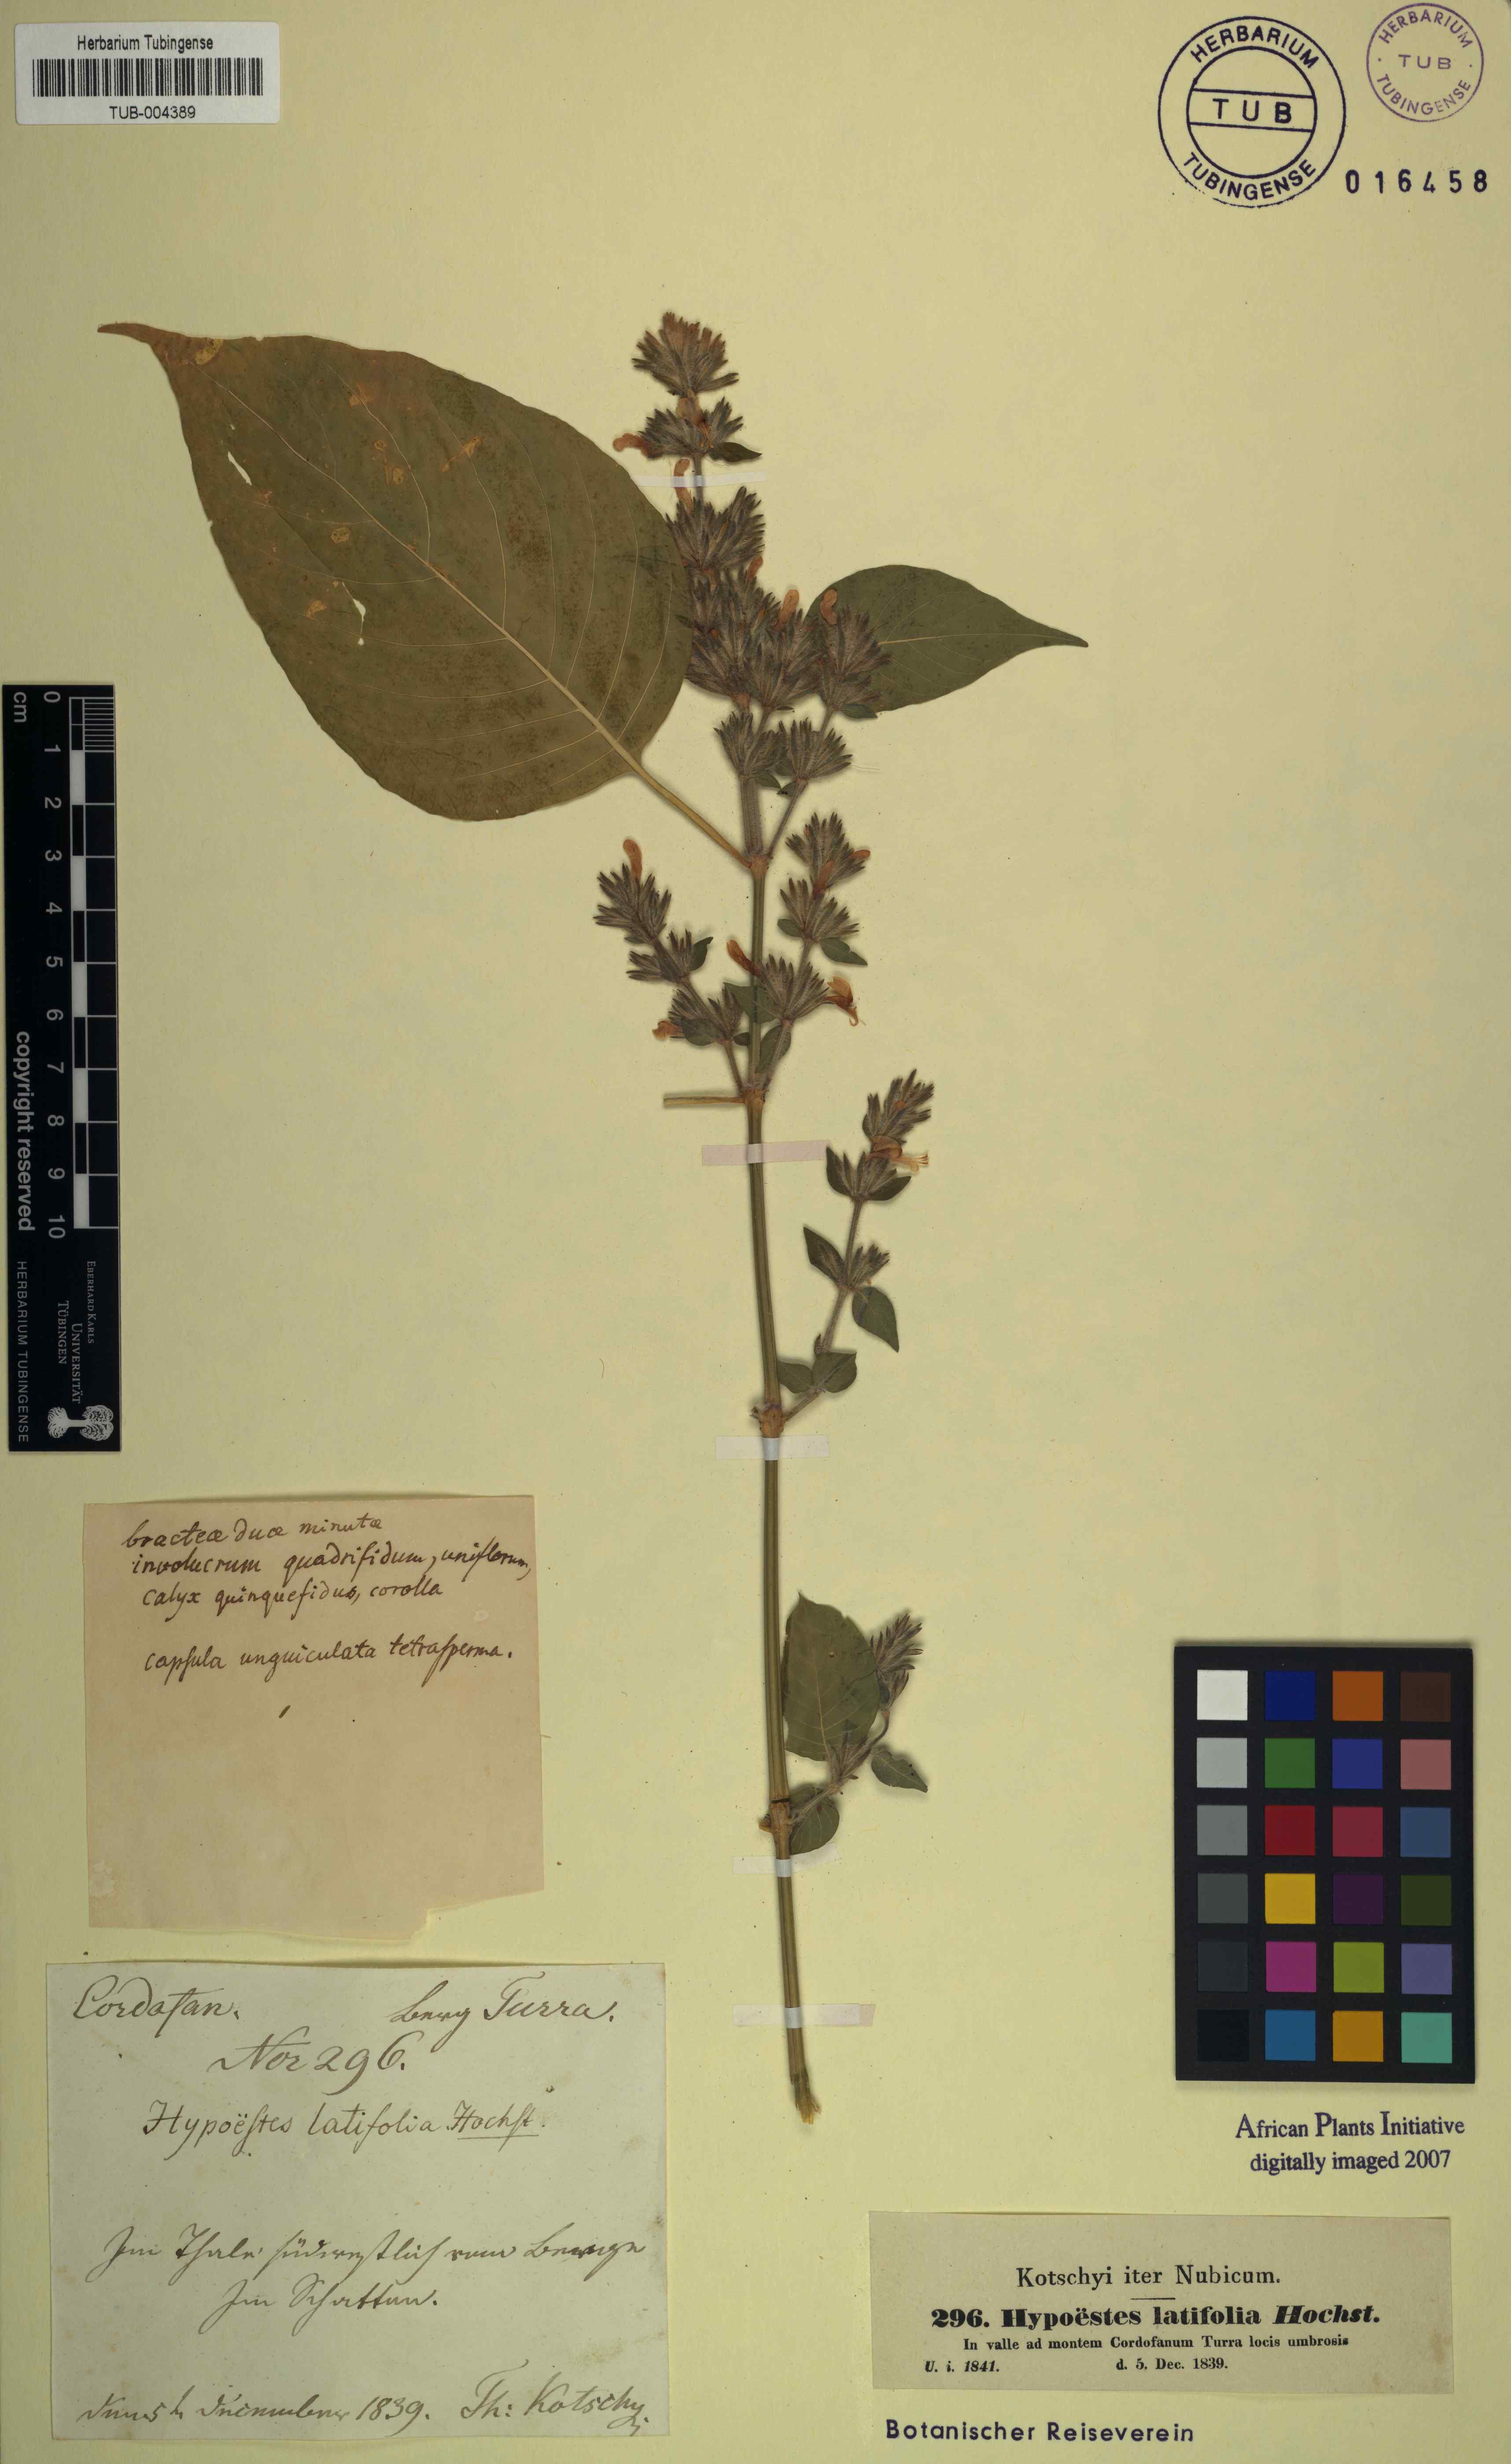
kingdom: Plantae
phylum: Tracheophyta
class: Magnoliopsida
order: Lamiales
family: Acanthaceae
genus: Hypoestes
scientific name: Hypoestes forskaolii
